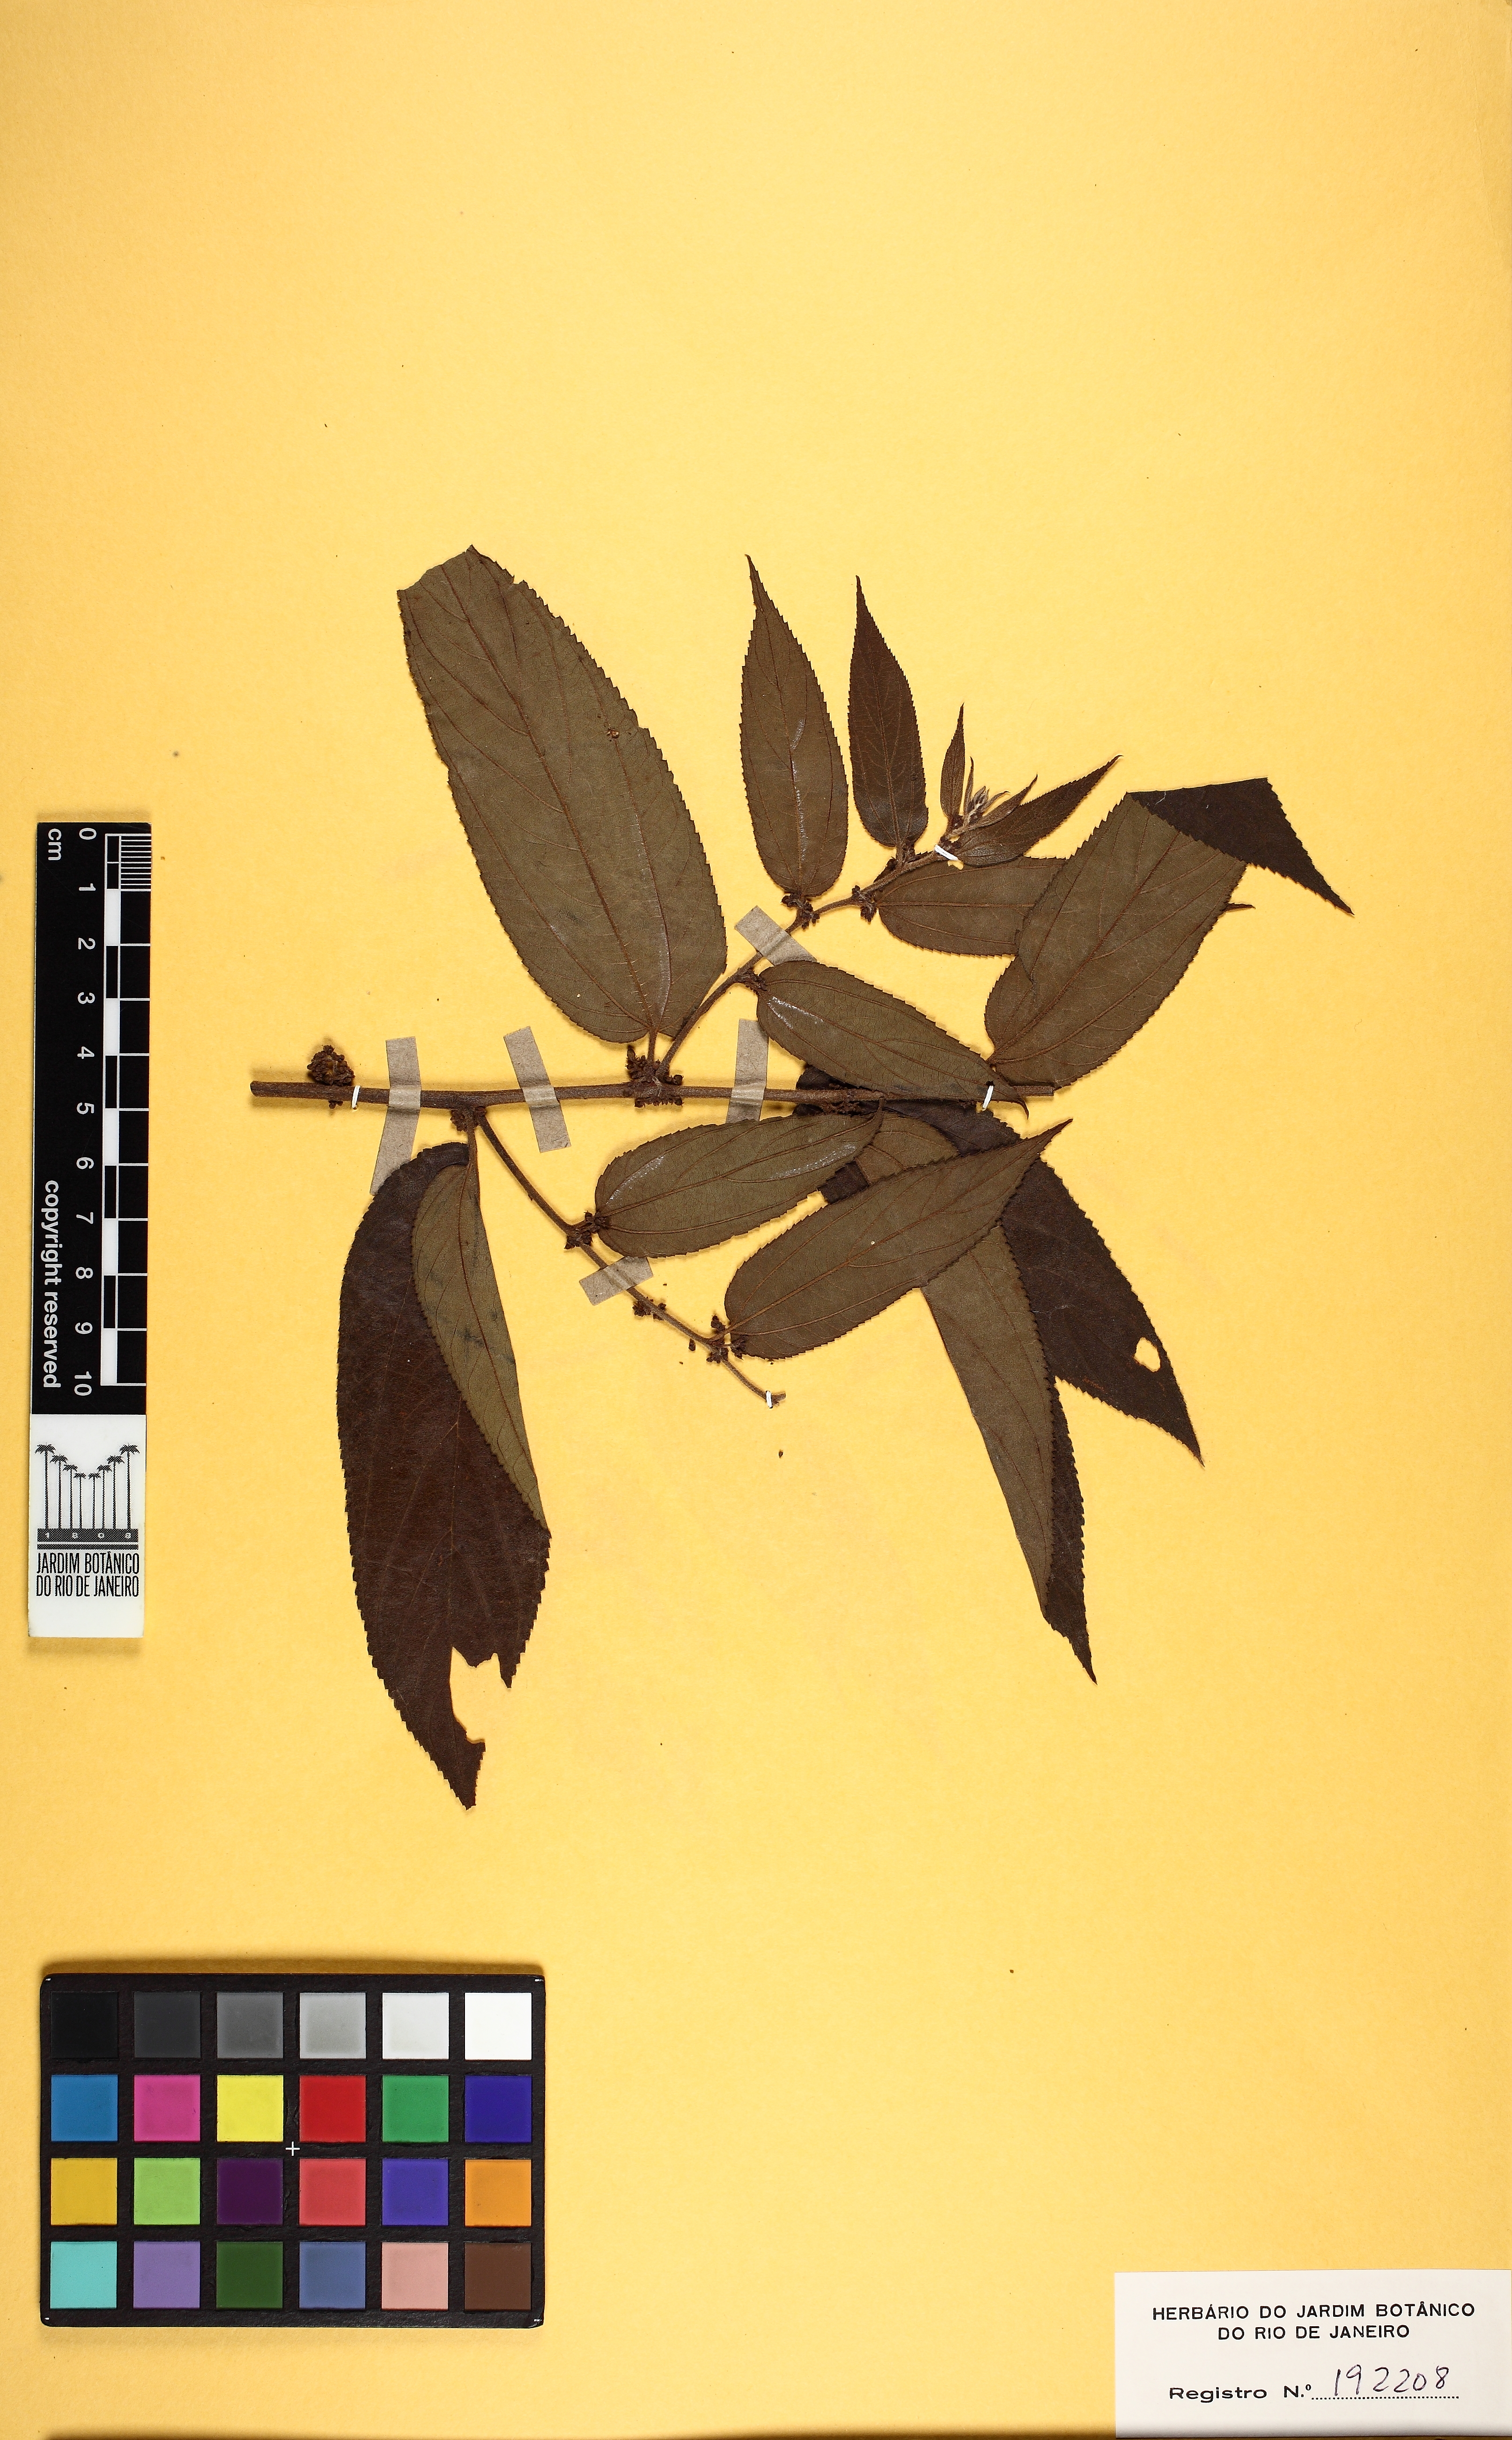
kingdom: Plantae
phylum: Tracheophyta
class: Magnoliopsida
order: Rosales
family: Cannabaceae
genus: Trema
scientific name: Trema micranthum
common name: Jamaican nettletree
